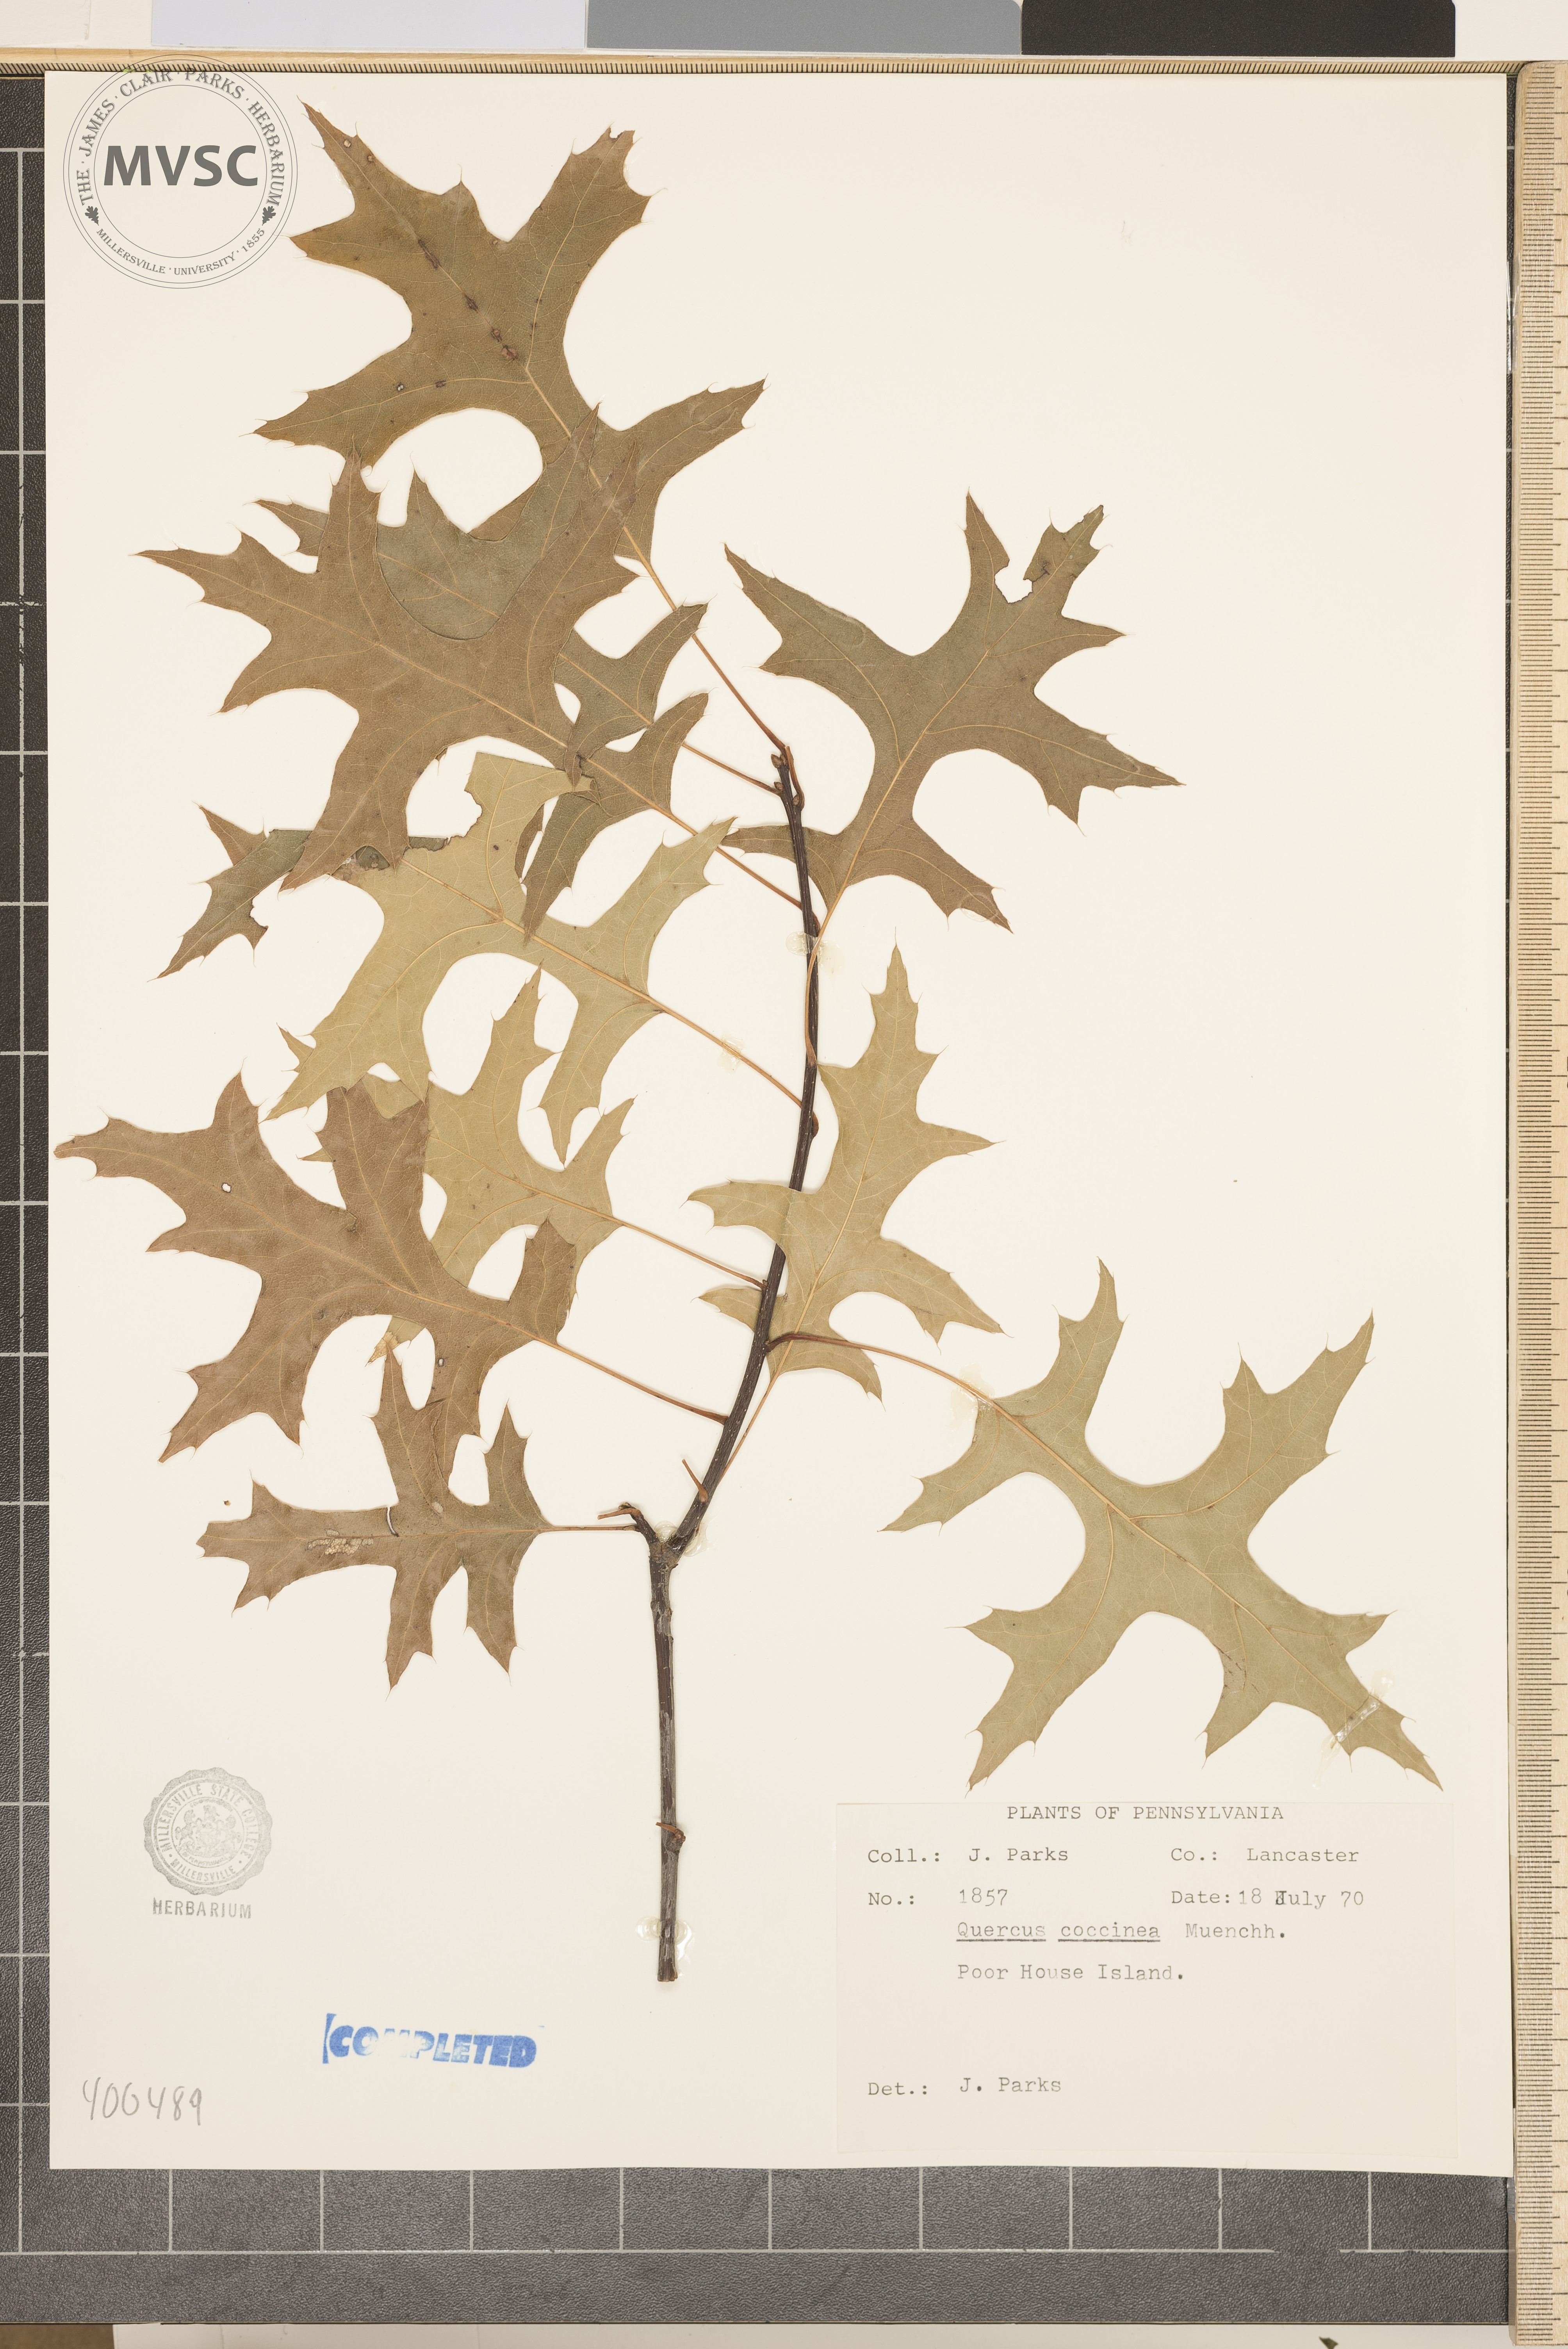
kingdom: Plantae
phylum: Tracheophyta
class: Magnoliopsida
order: Fagales
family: Fagaceae
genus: Quercus
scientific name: Quercus coccinea
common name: scarlet oak
